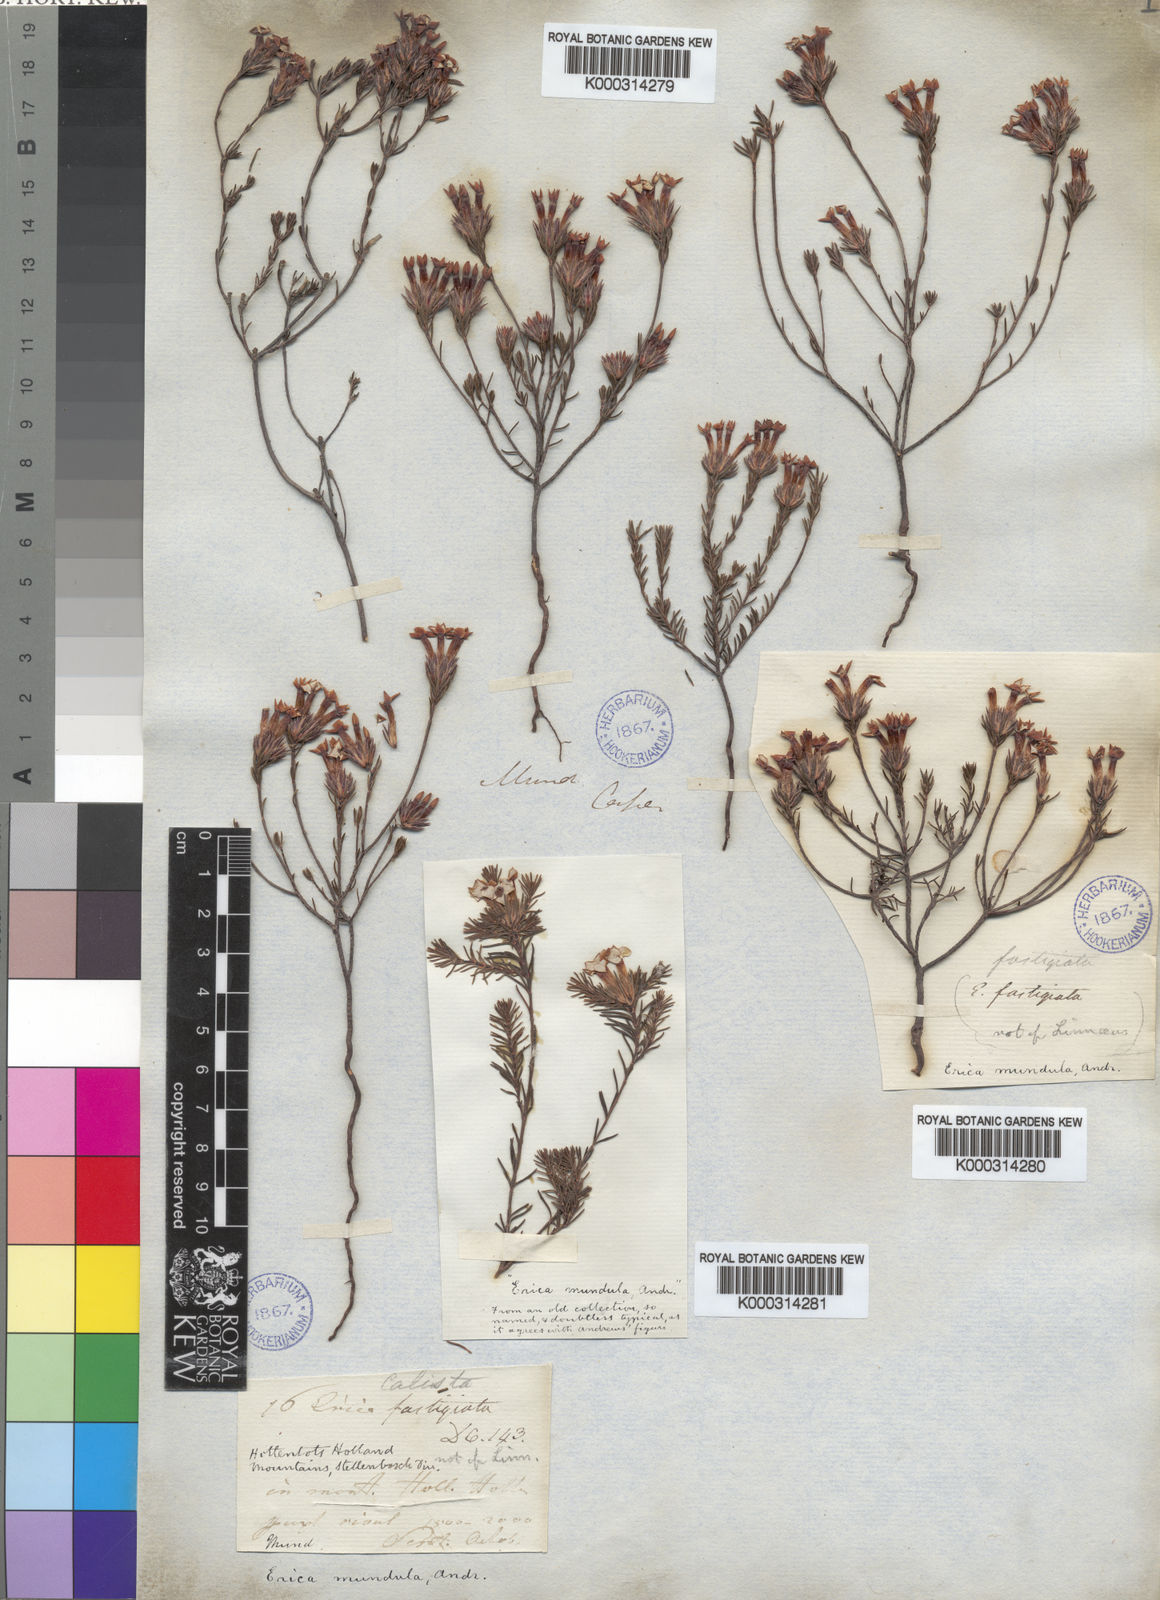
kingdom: Plantae
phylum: Tracheophyta
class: Magnoliopsida
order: Ericales
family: Ericaceae
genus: Erica
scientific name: Erica fastigiata
